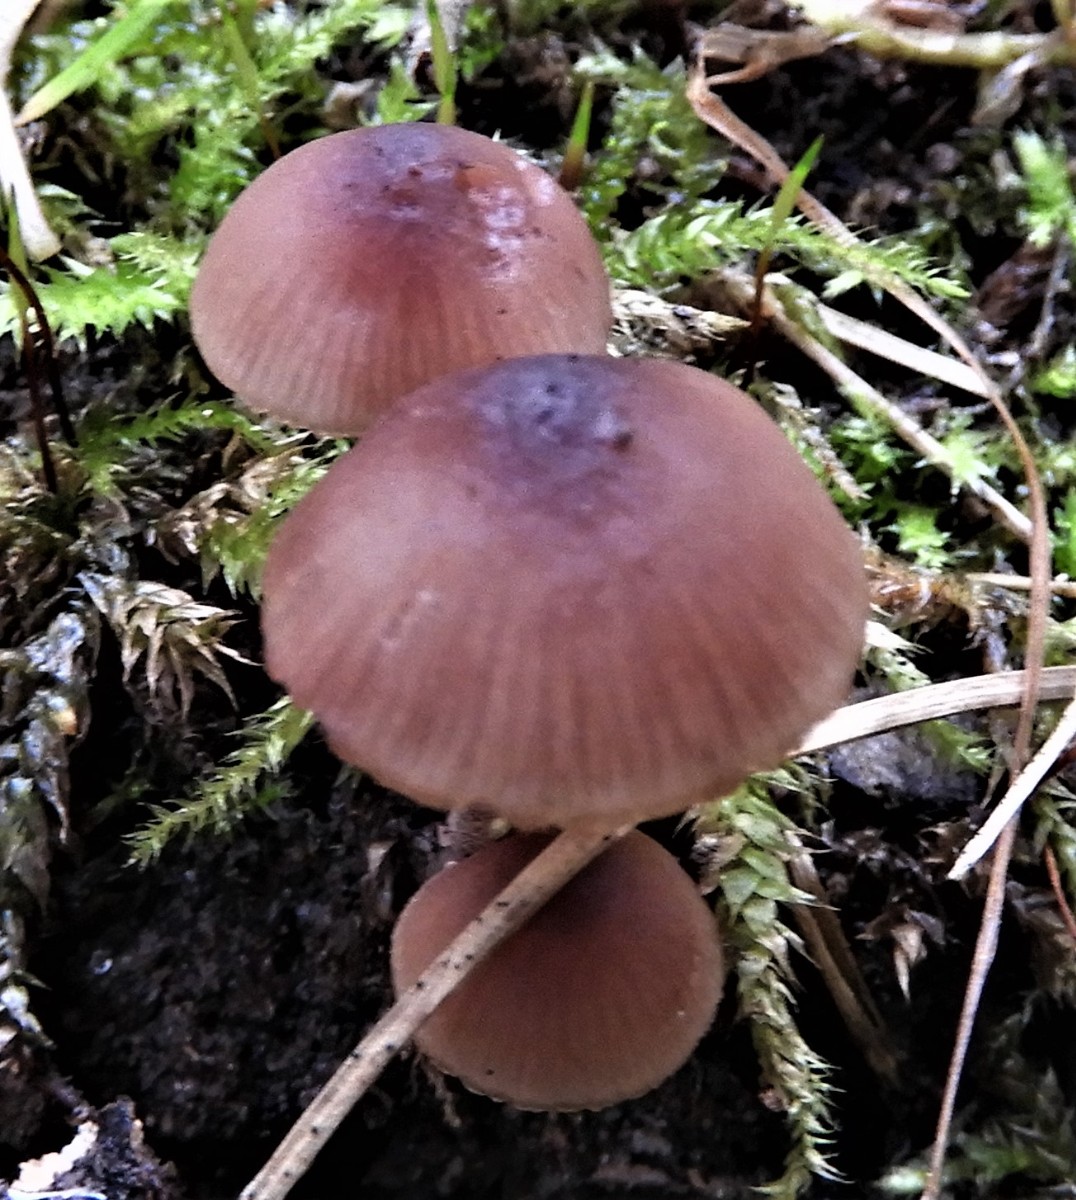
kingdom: Fungi
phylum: Basidiomycota
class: Agaricomycetes
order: Agaricales
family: Mycenaceae
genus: Mycena
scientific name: Mycena haematopus
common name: blødende huesvamp
